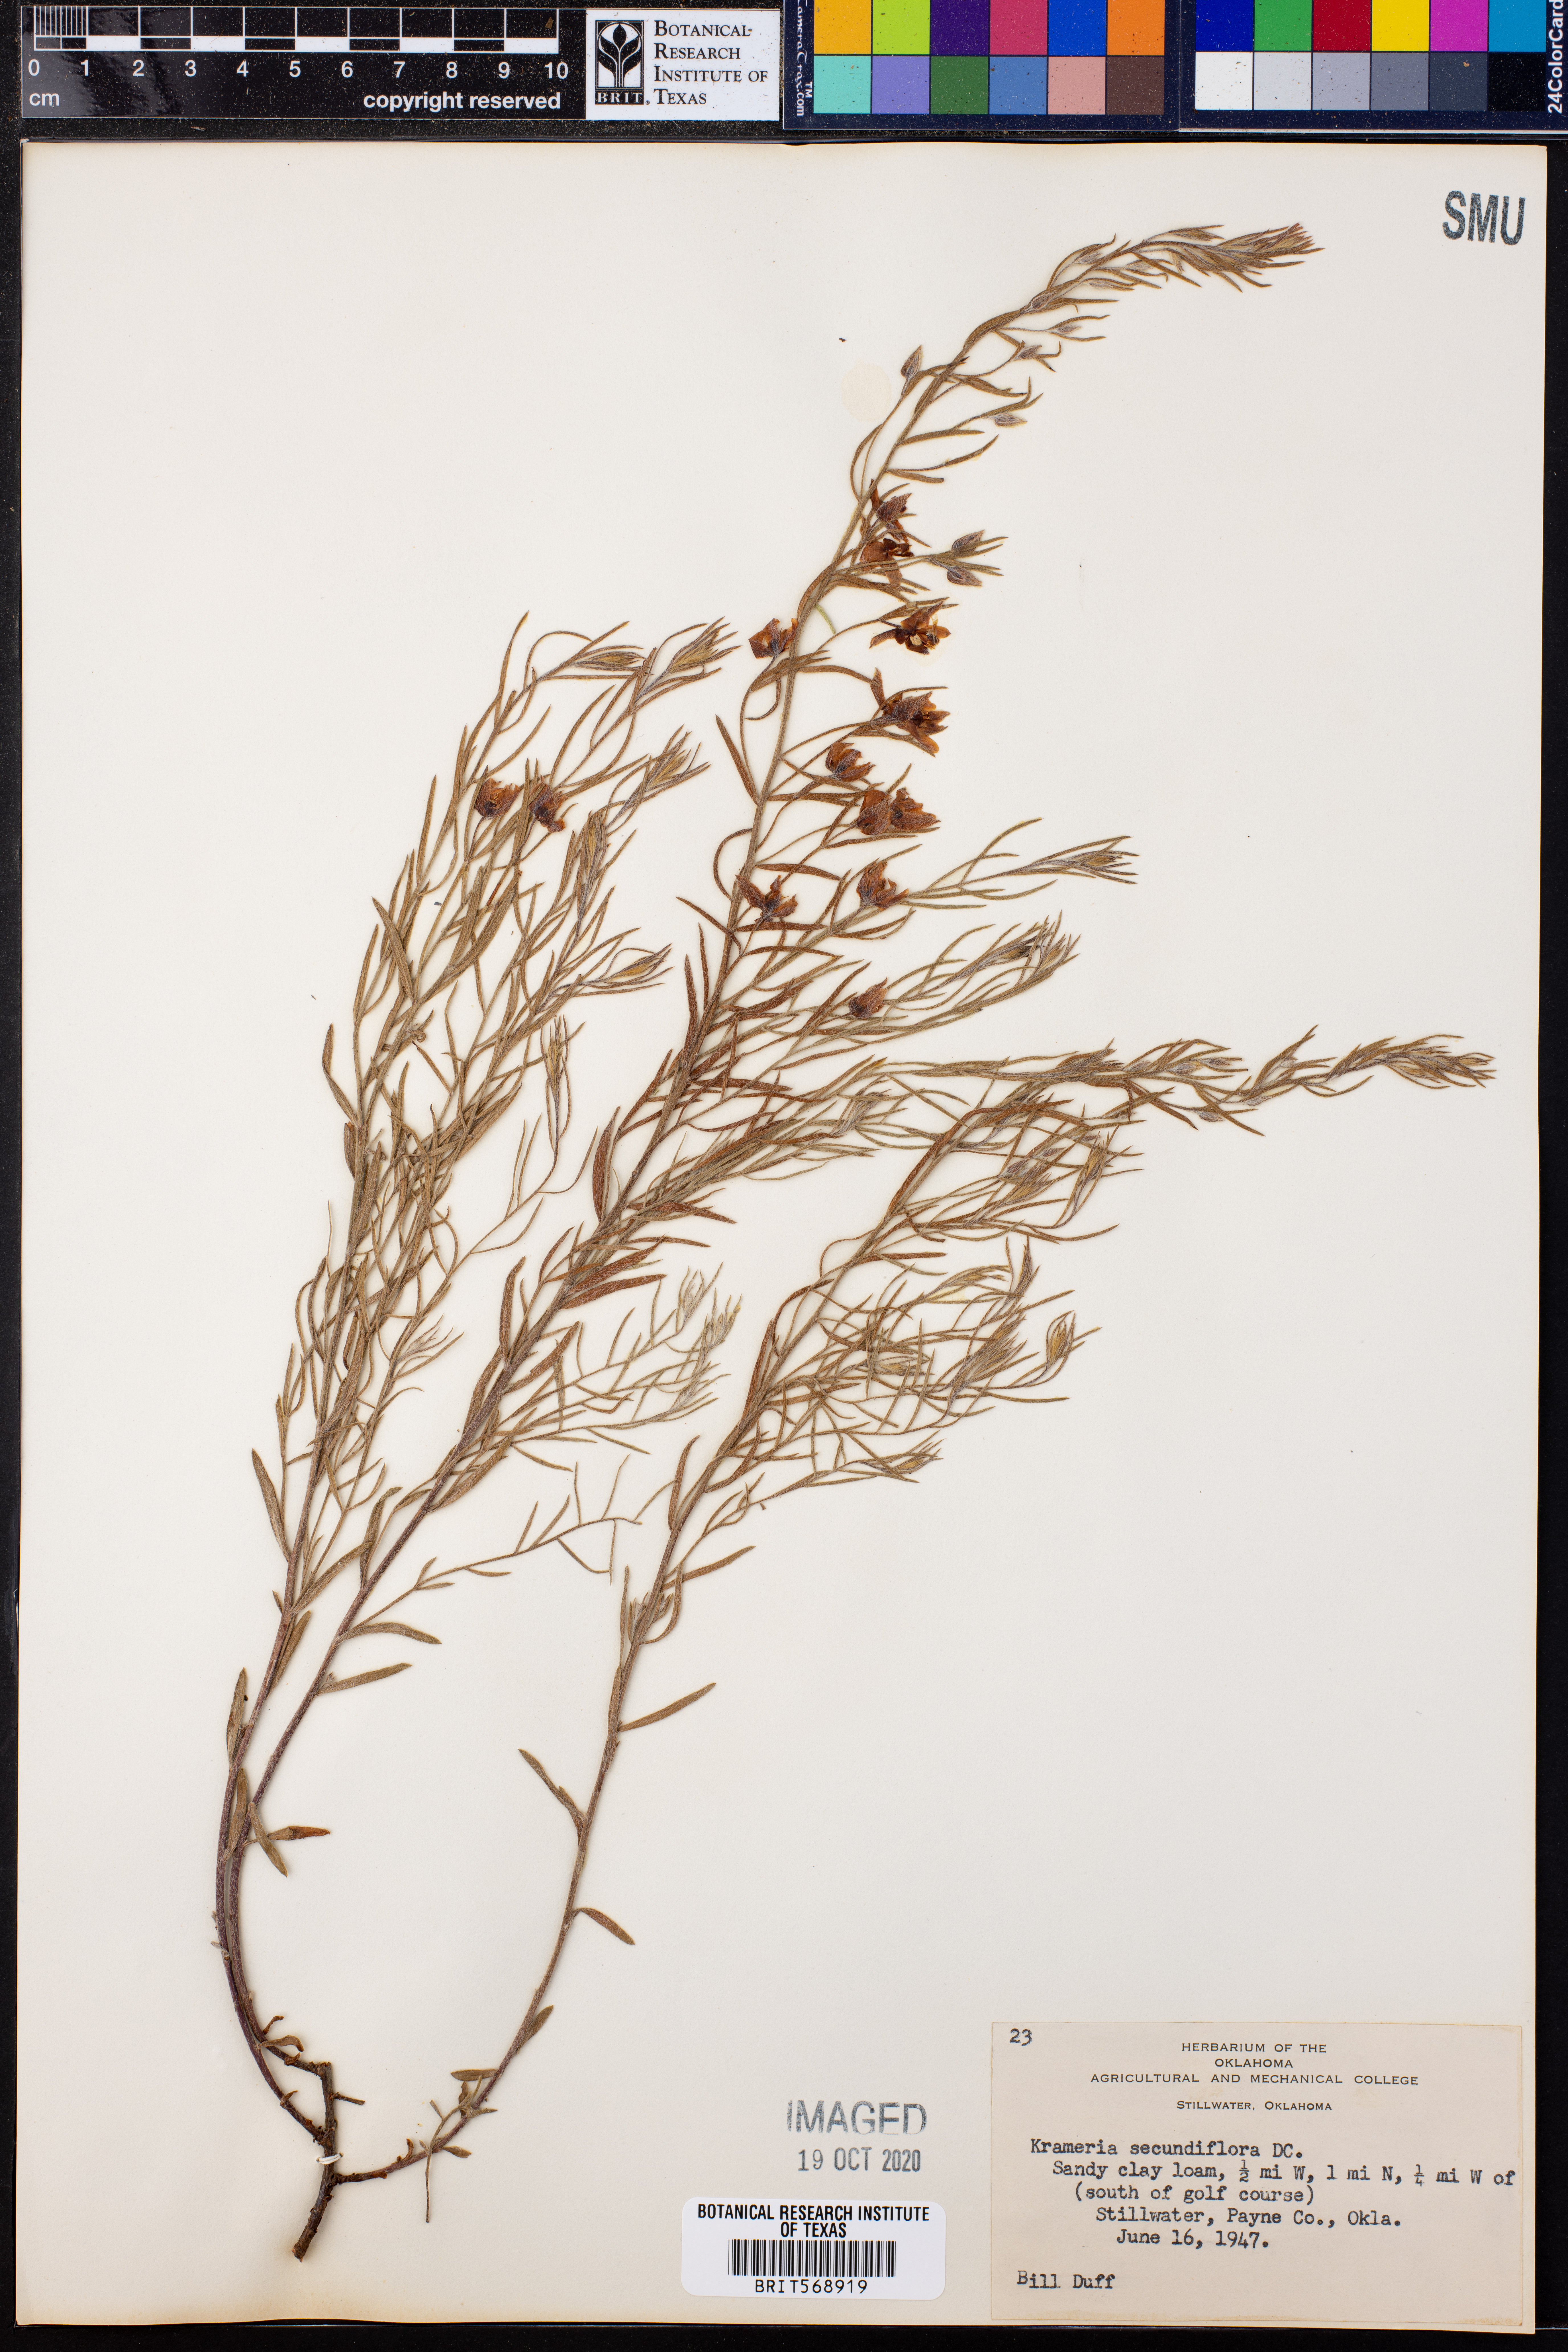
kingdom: Plantae
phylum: Tracheophyta
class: Magnoliopsida
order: Zygophyllales
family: Krameriaceae
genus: Krameria
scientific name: Krameria secundiflora
